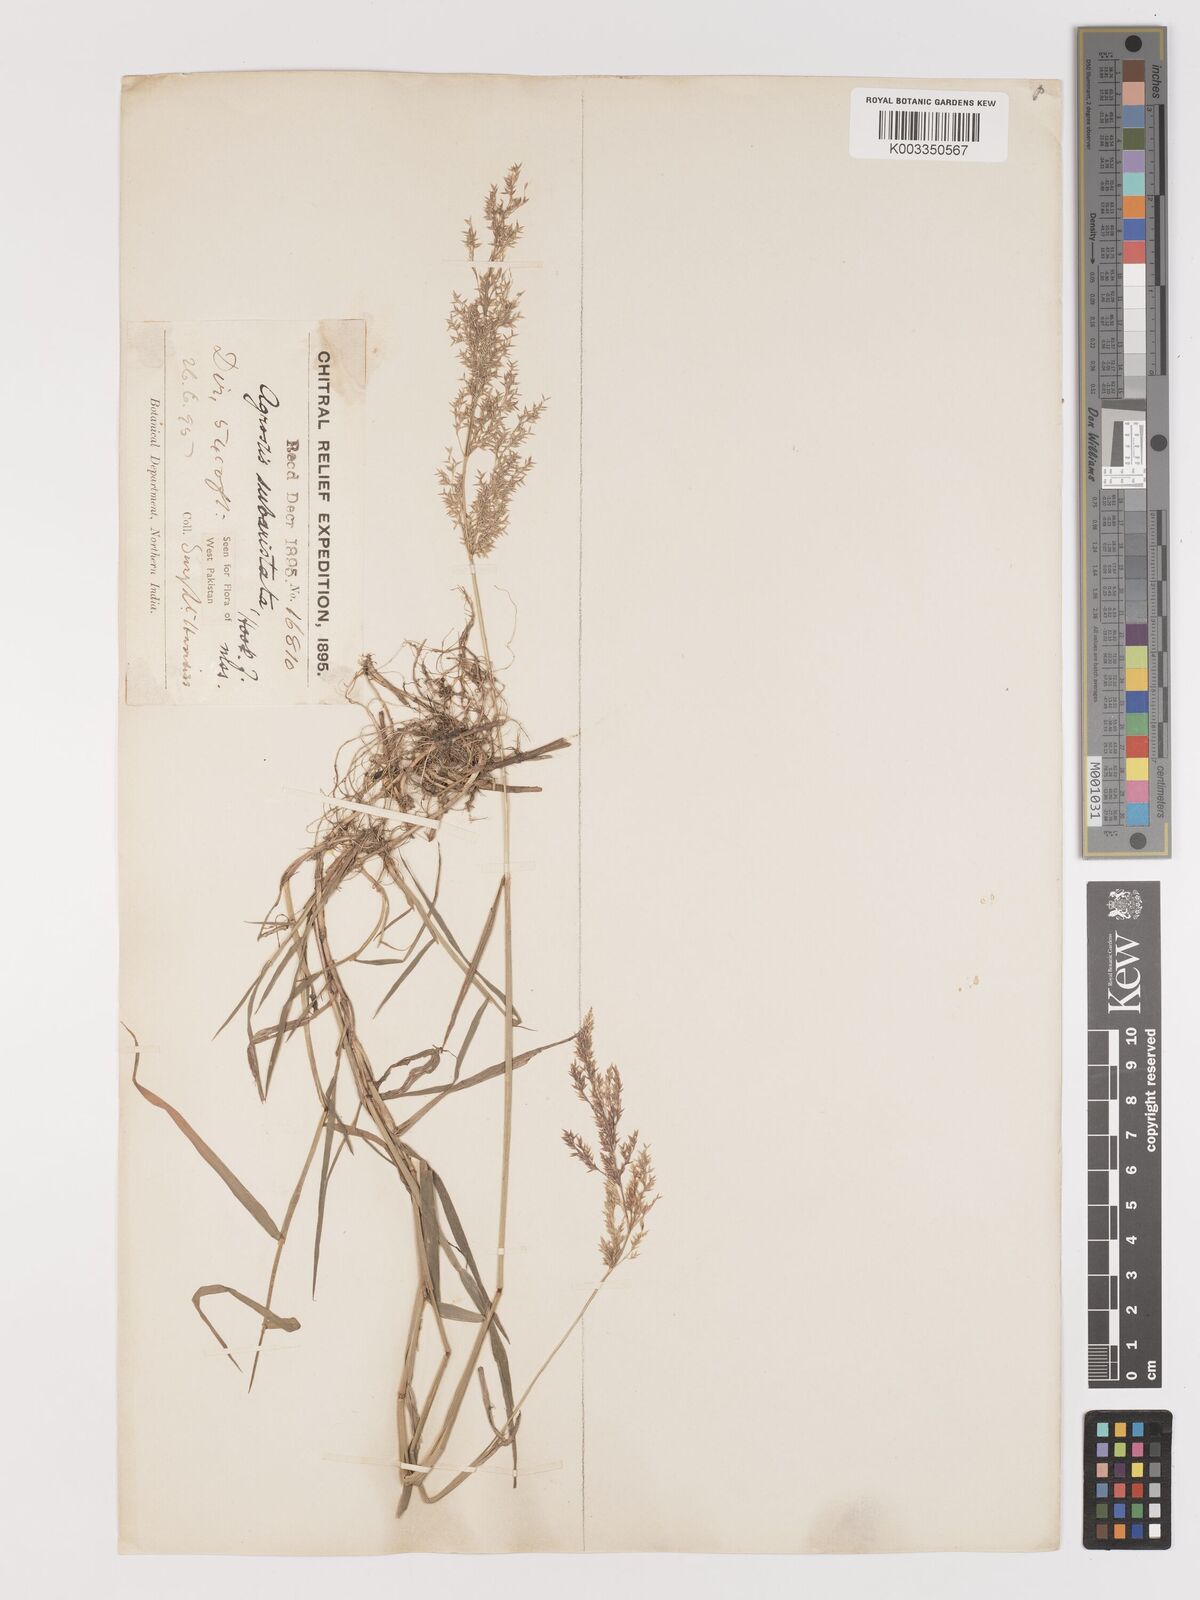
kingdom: Plantae
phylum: Tracheophyta
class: Liliopsida
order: Poales
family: Poaceae
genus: Agropogon
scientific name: Agropogon lutosus
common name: Coast agropogon
